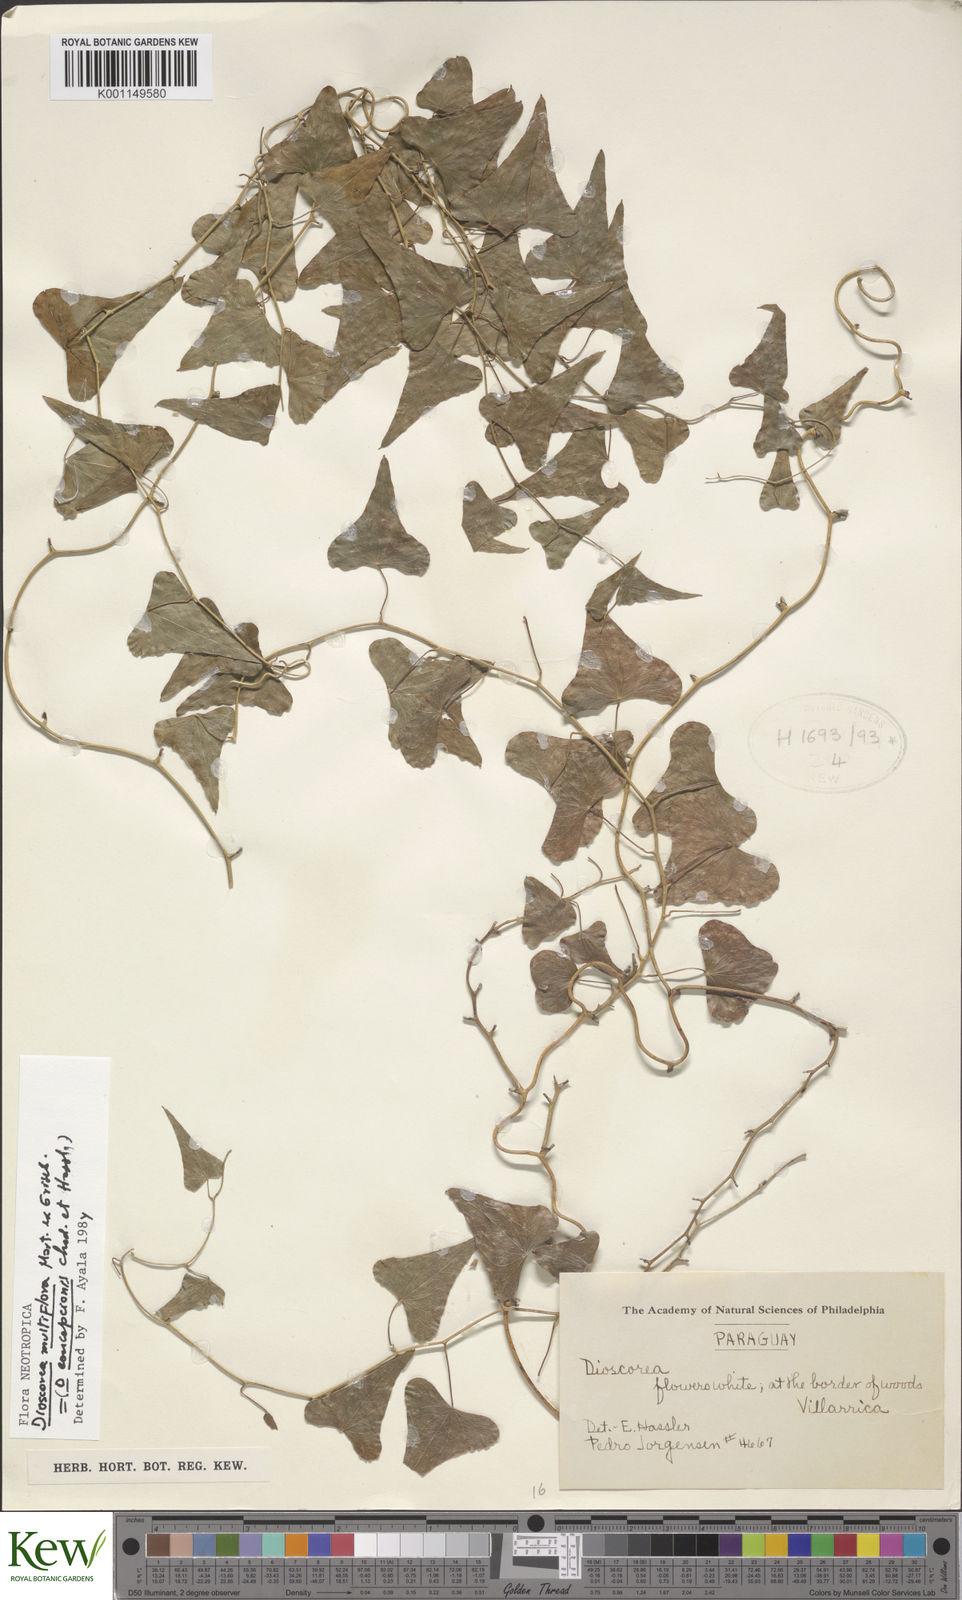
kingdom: Plantae
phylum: Tracheophyta
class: Liliopsida
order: Dioscoreales
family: Dioscoreaceae
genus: Dioscorea
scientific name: Dioscorea multiflora
